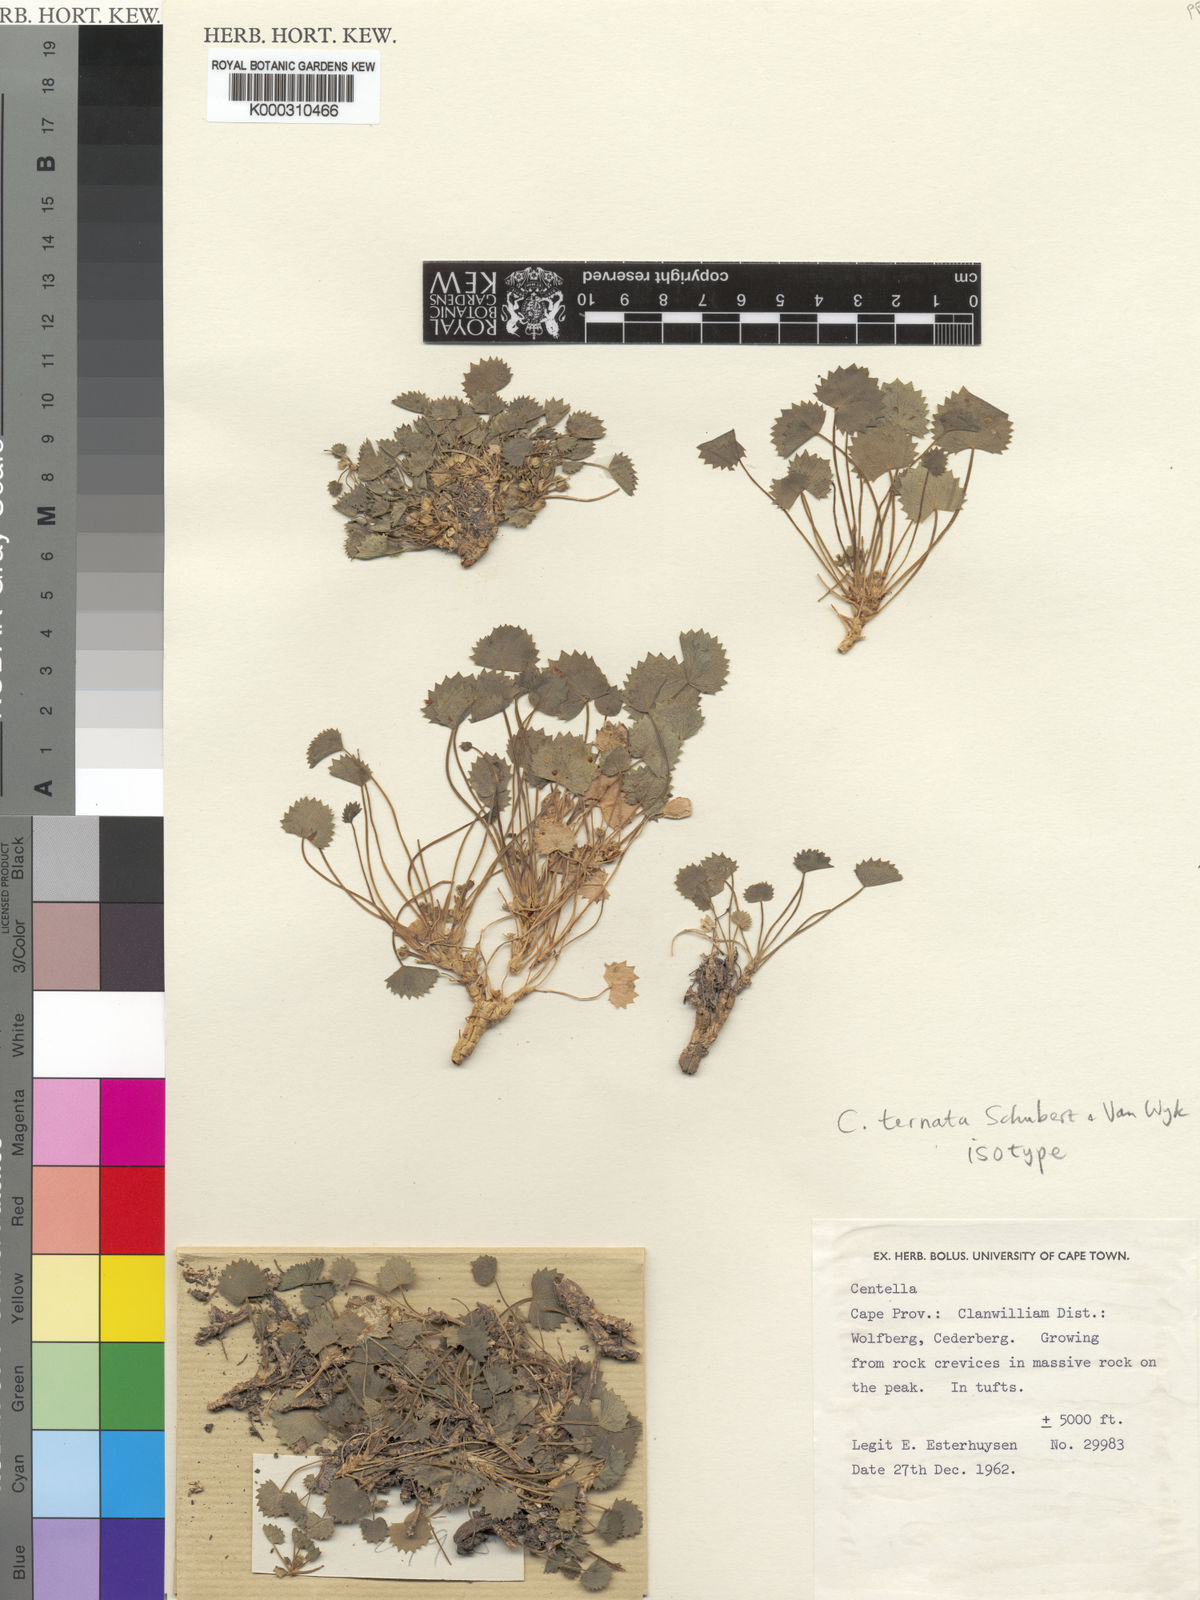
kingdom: Plantae
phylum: Tracheophyta
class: Magnoliopsida
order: Apiales
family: Apiaceae
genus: Centella
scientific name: Centella ternata
